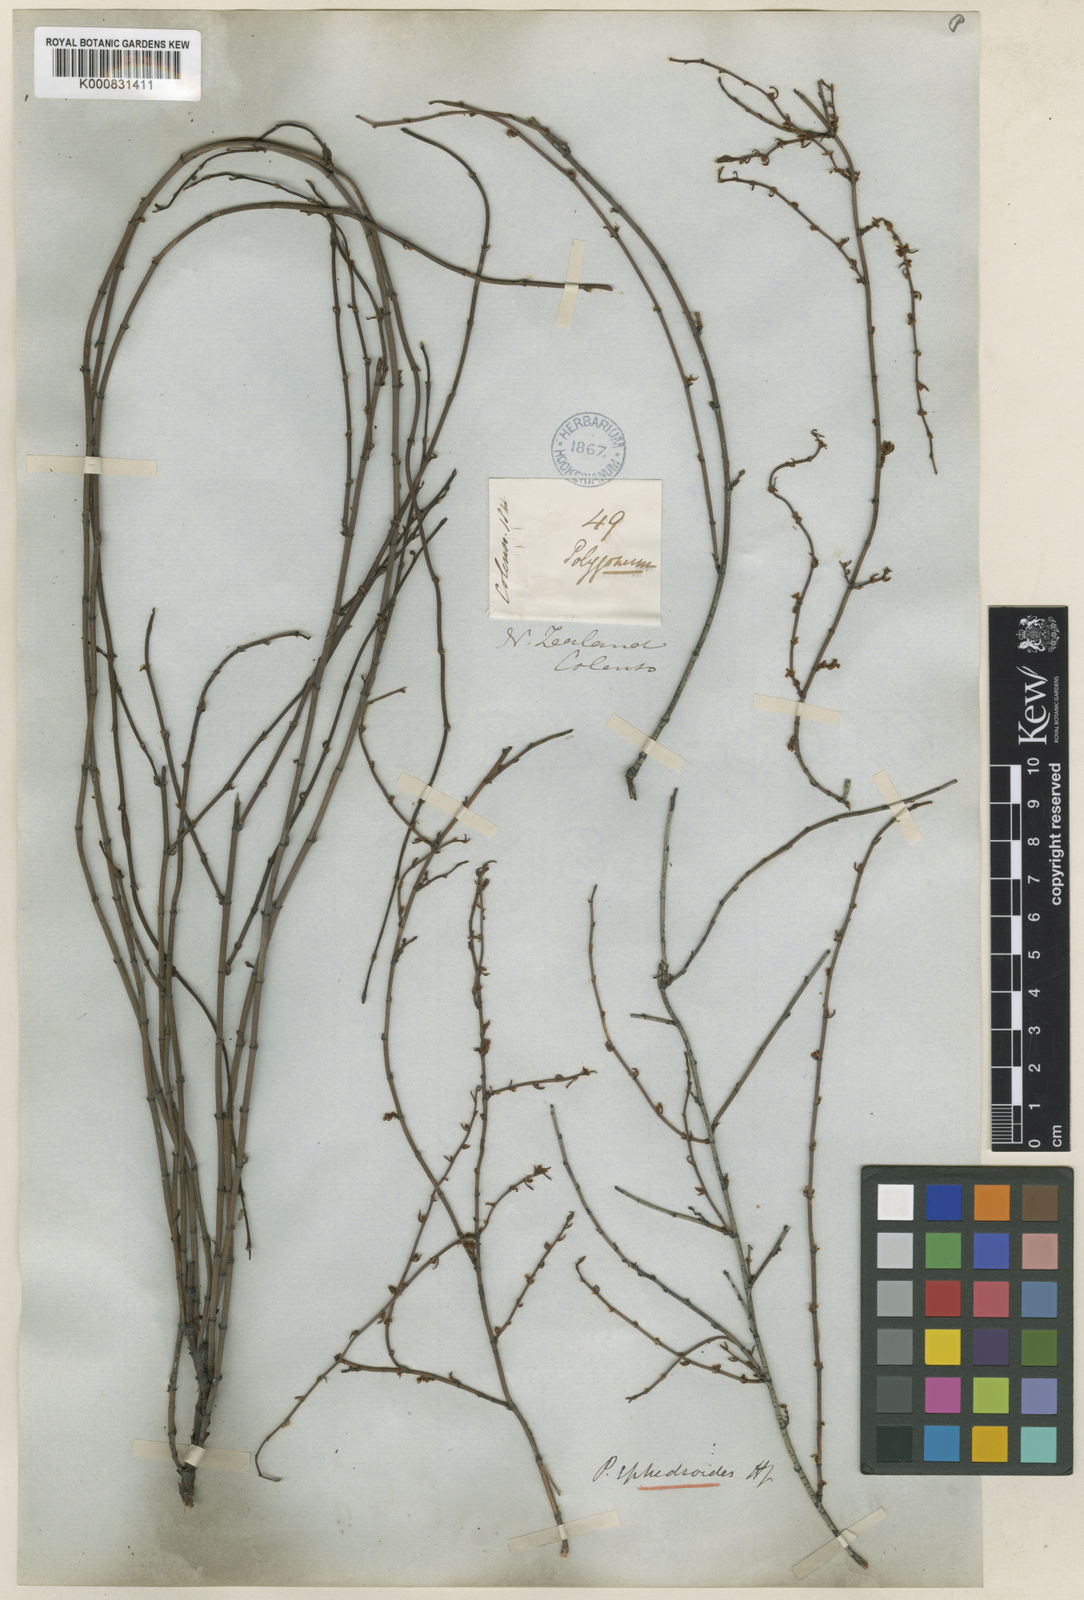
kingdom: Plantae
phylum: Tracheophyta
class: Magnoliopsida
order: Caryophyllales
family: Polygonaceae
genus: Muehlenbeckia
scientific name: Muehlenbeckia ephedroides
